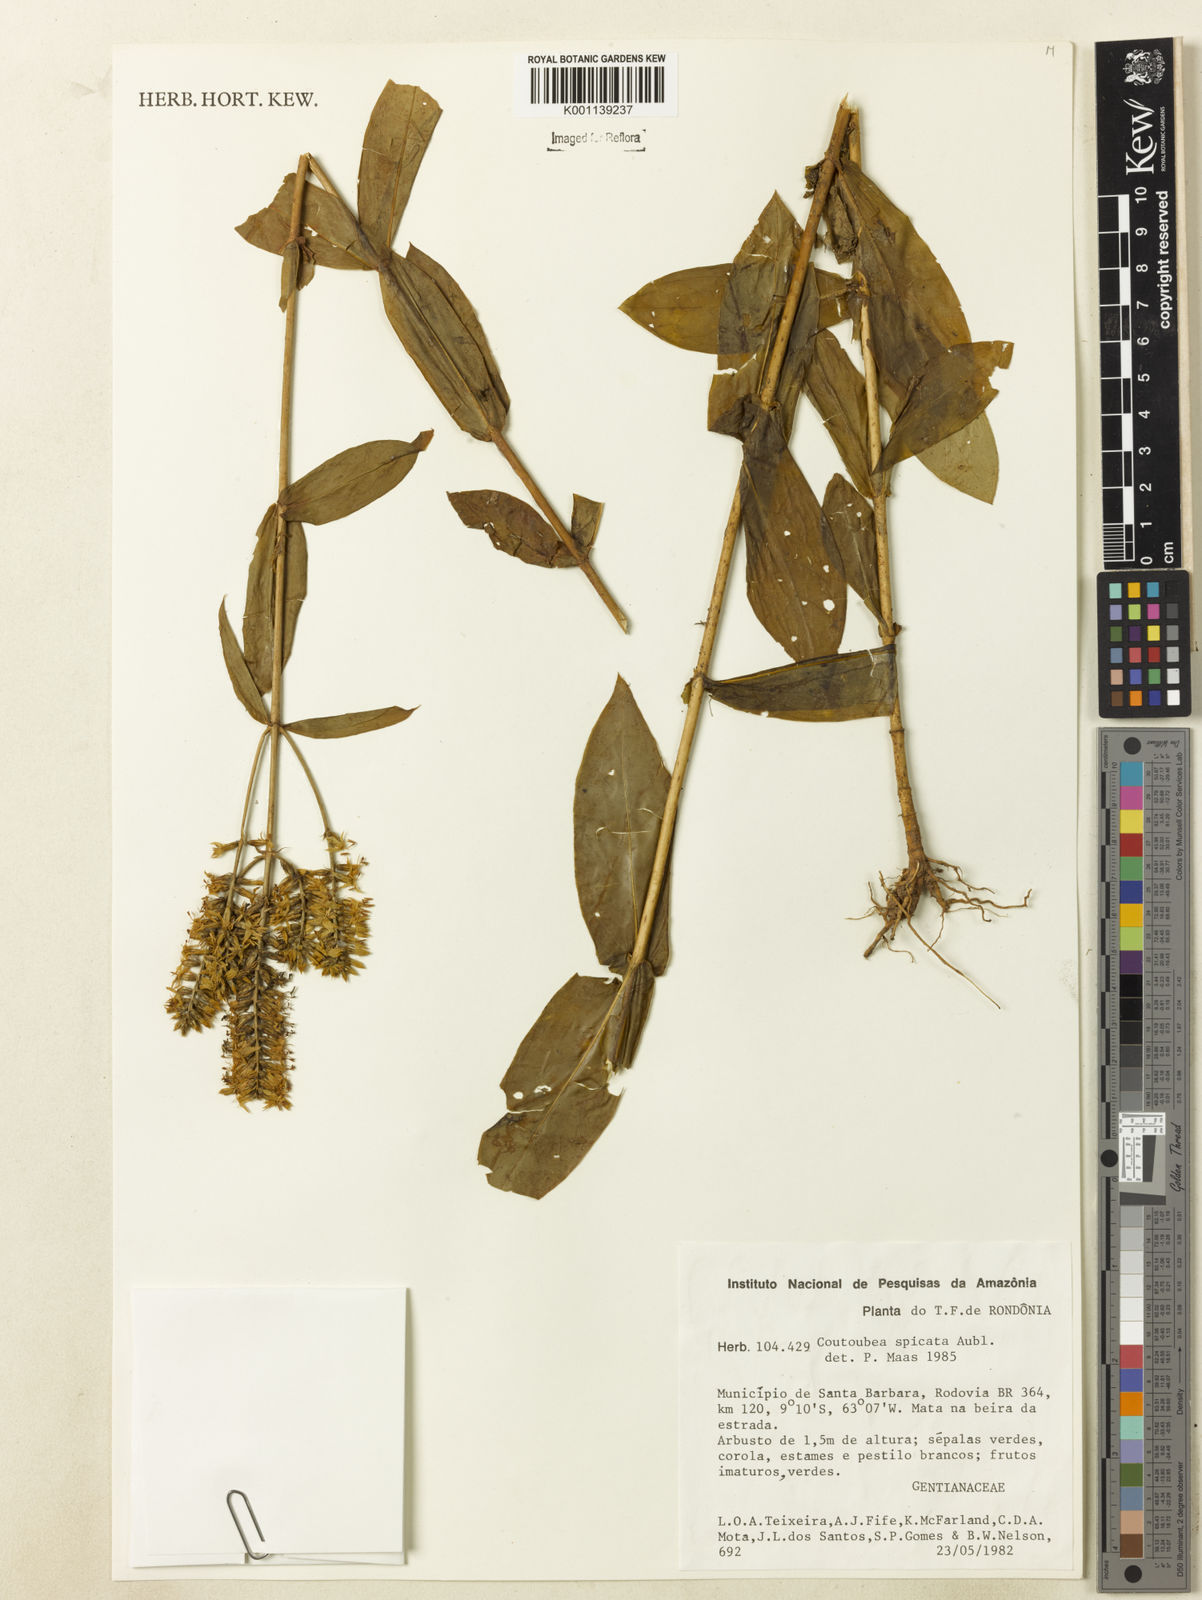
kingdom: Plantae
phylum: Tracheophyta
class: Magnoliopsida
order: Gentianales
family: Gentianaceae
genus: Coutoubea
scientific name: Coutoubea spicata
